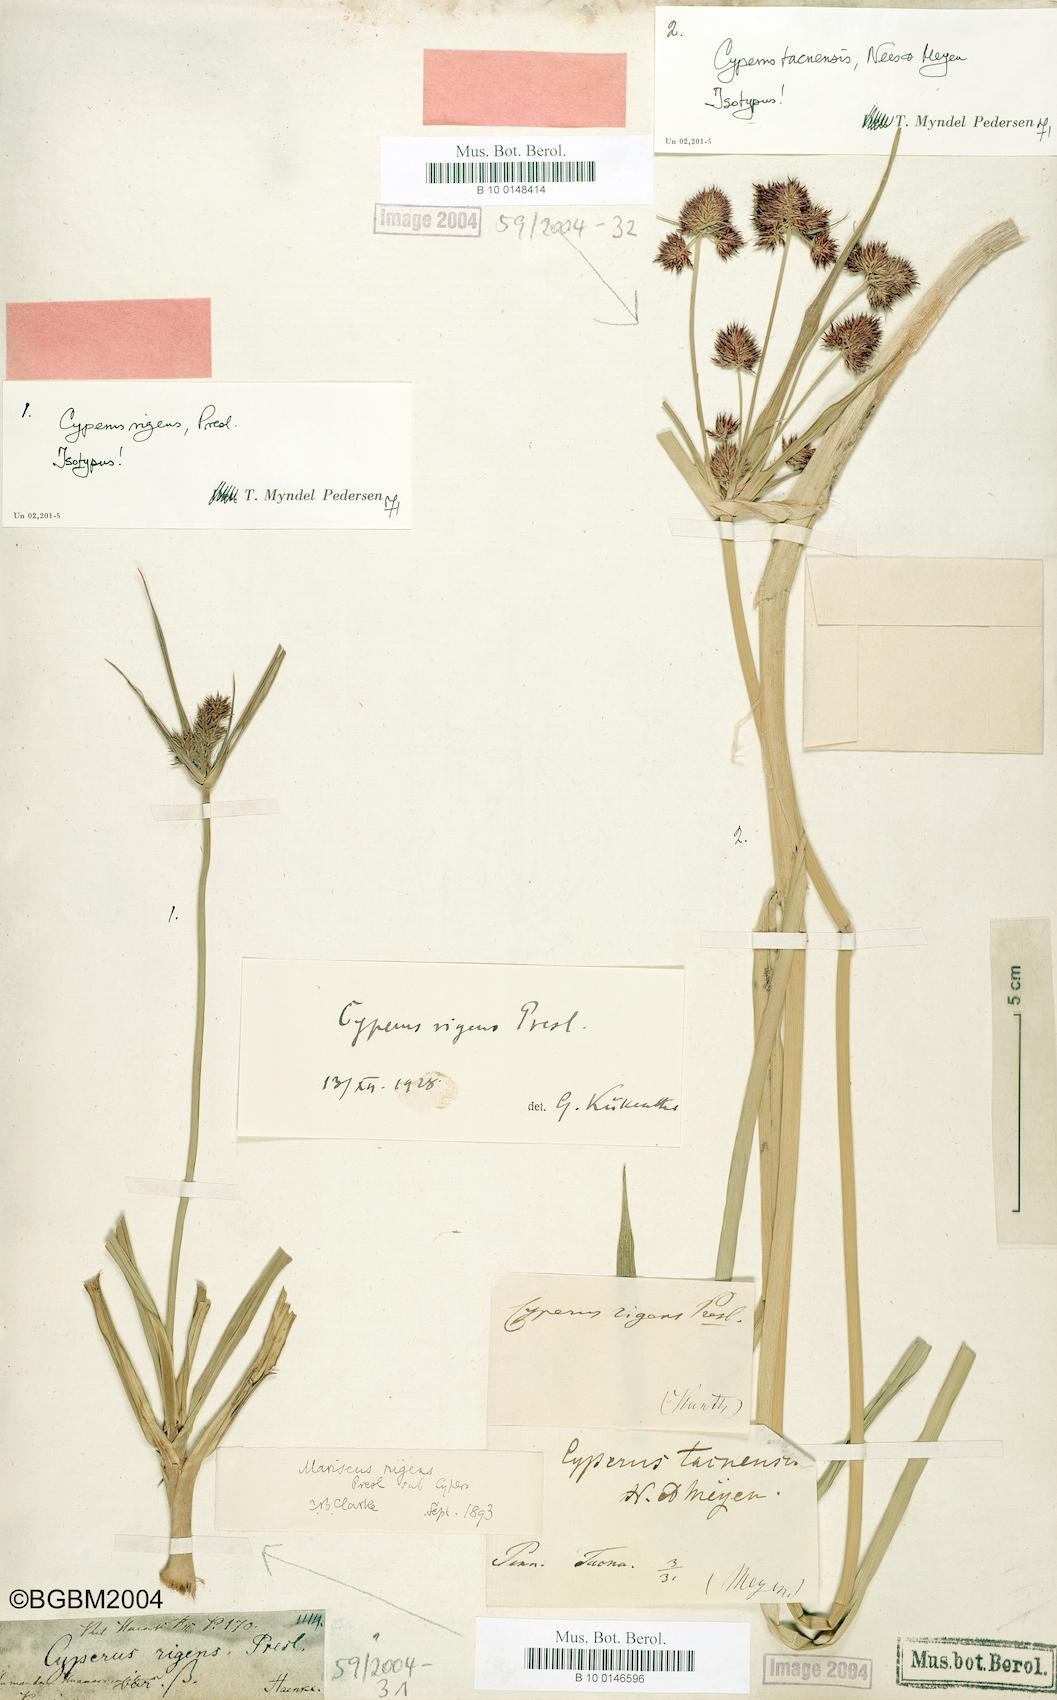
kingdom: Plantae
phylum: Tracheophyta
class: Liliopsida
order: Poales
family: Cyperaceae
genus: Cyperus
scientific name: Cyperus tacnensis
